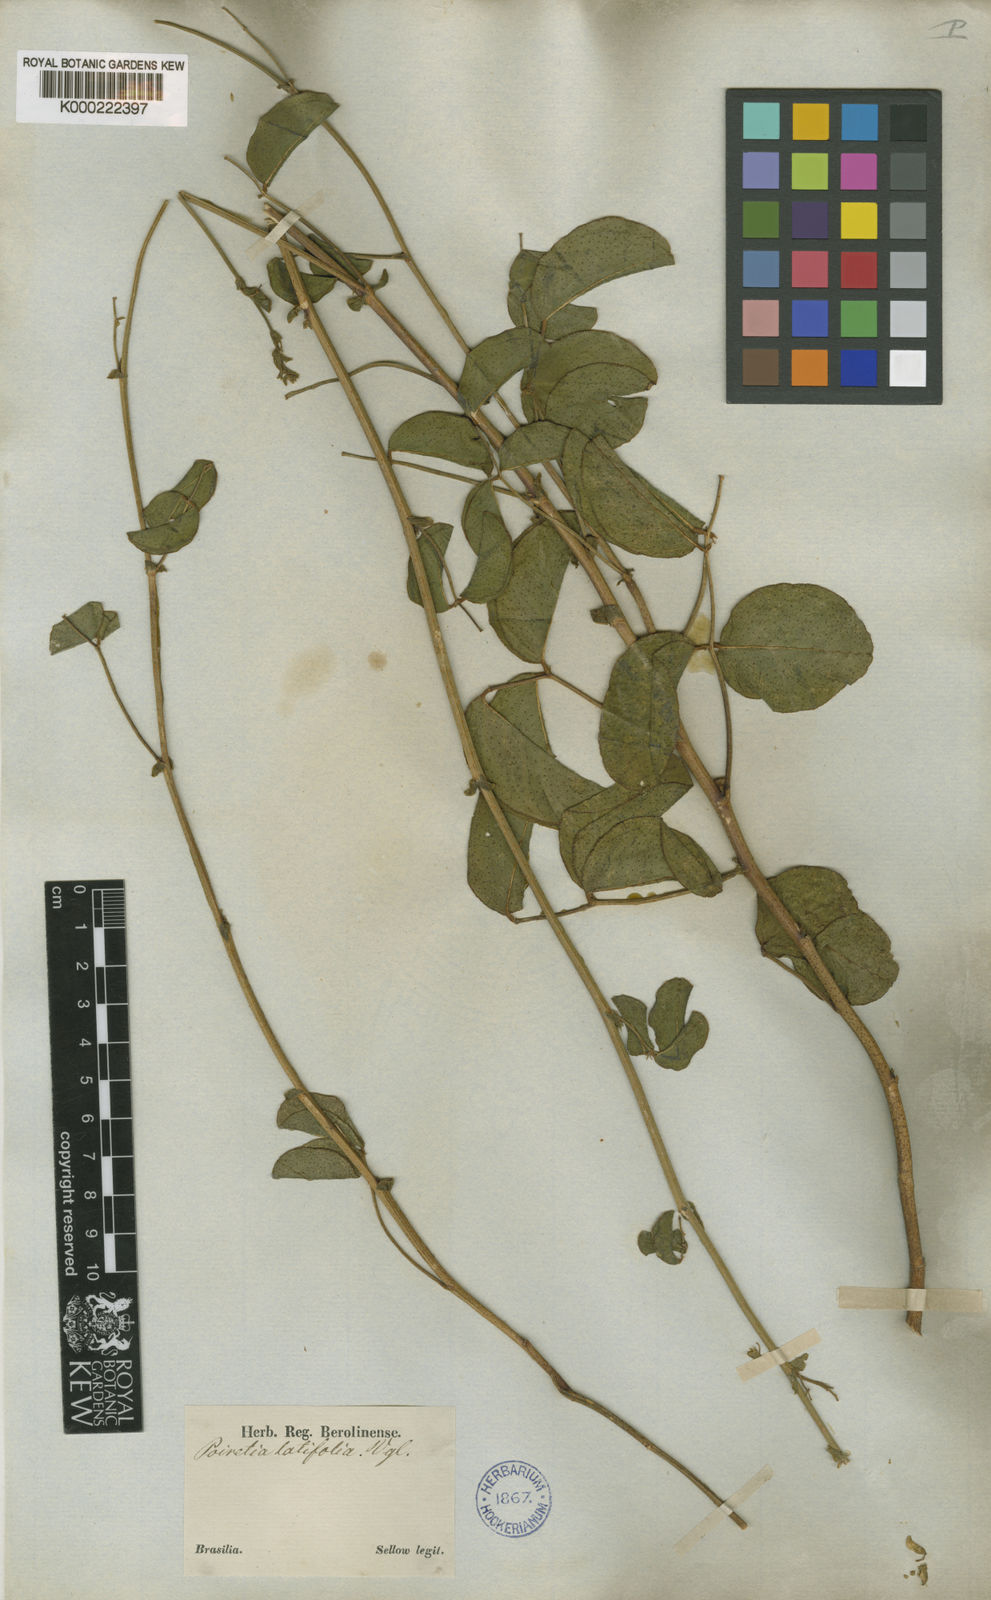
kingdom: Plantae
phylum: Tracheophyta
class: Magnoliopsida
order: Fabales
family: Fabaceae
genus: Poiretia
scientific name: Poiretia latifolia
